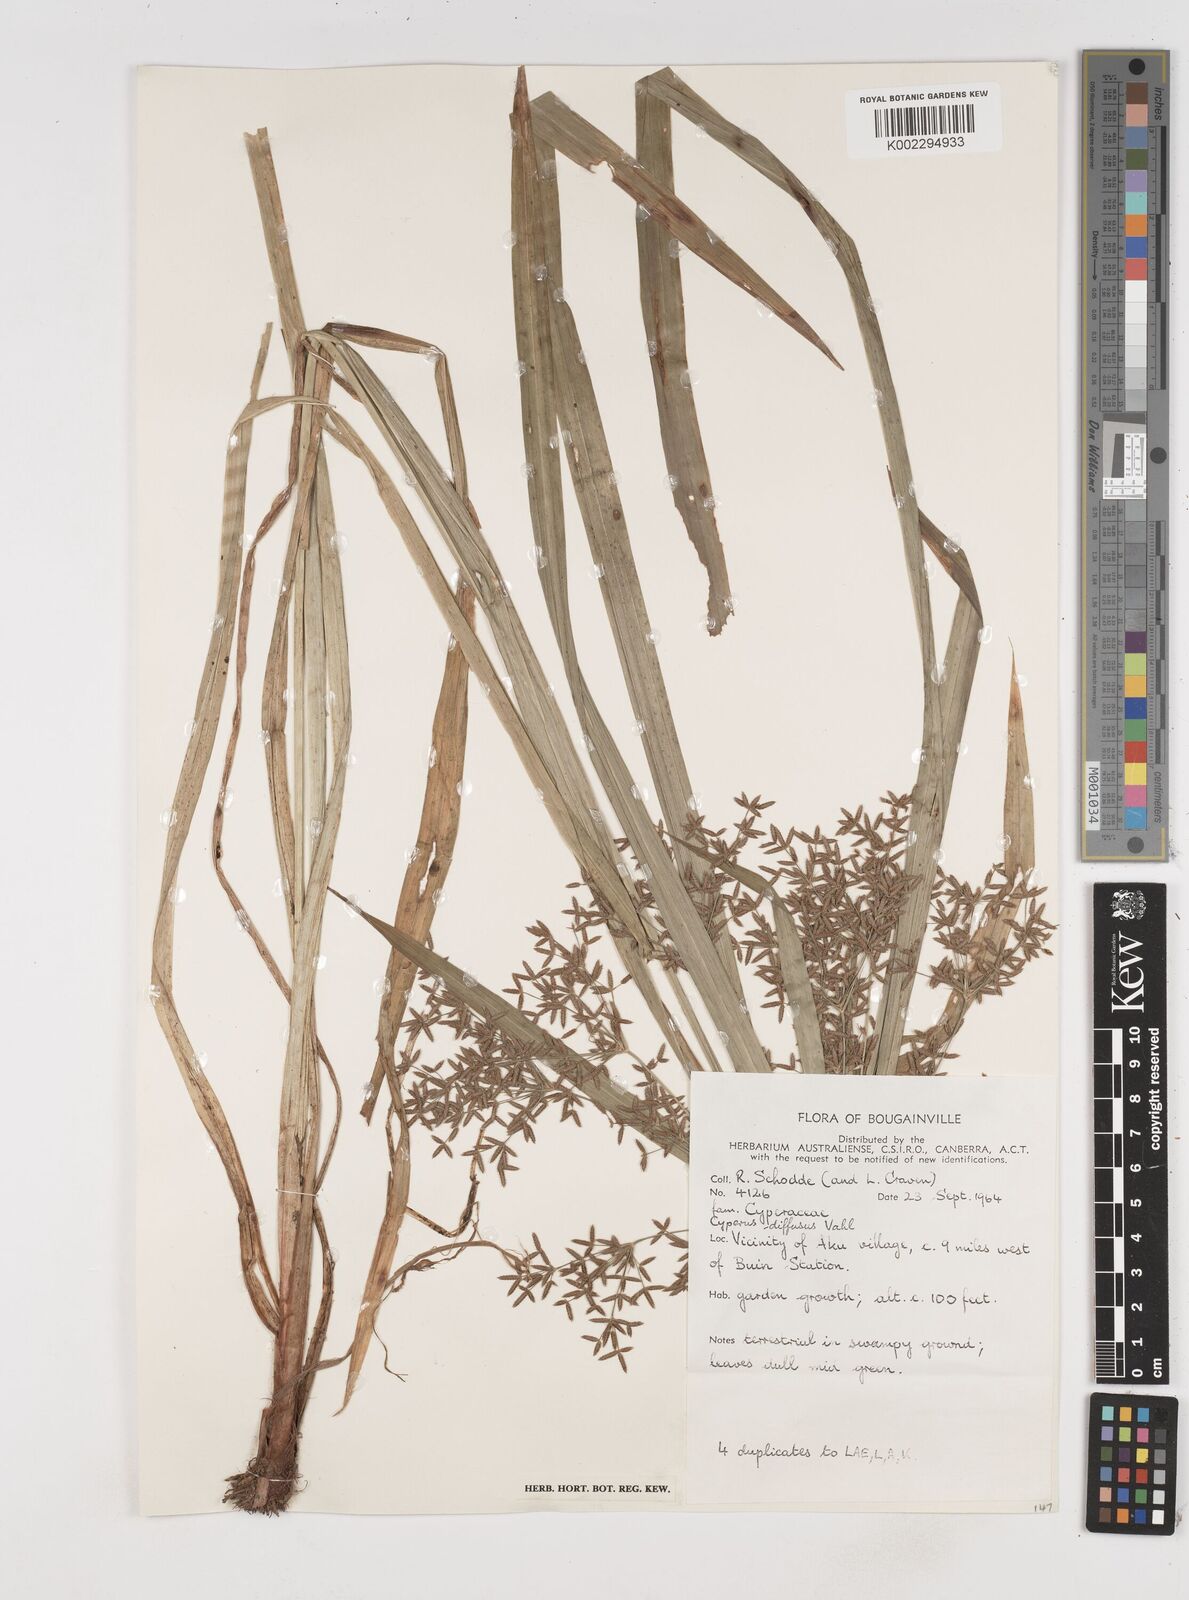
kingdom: Plantae
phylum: Tracheophyta
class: Liliopsida
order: Poales
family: Cyperaceae
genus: Cyperus
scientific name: Cyperus diffusus
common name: Dwarf umbrella grass
